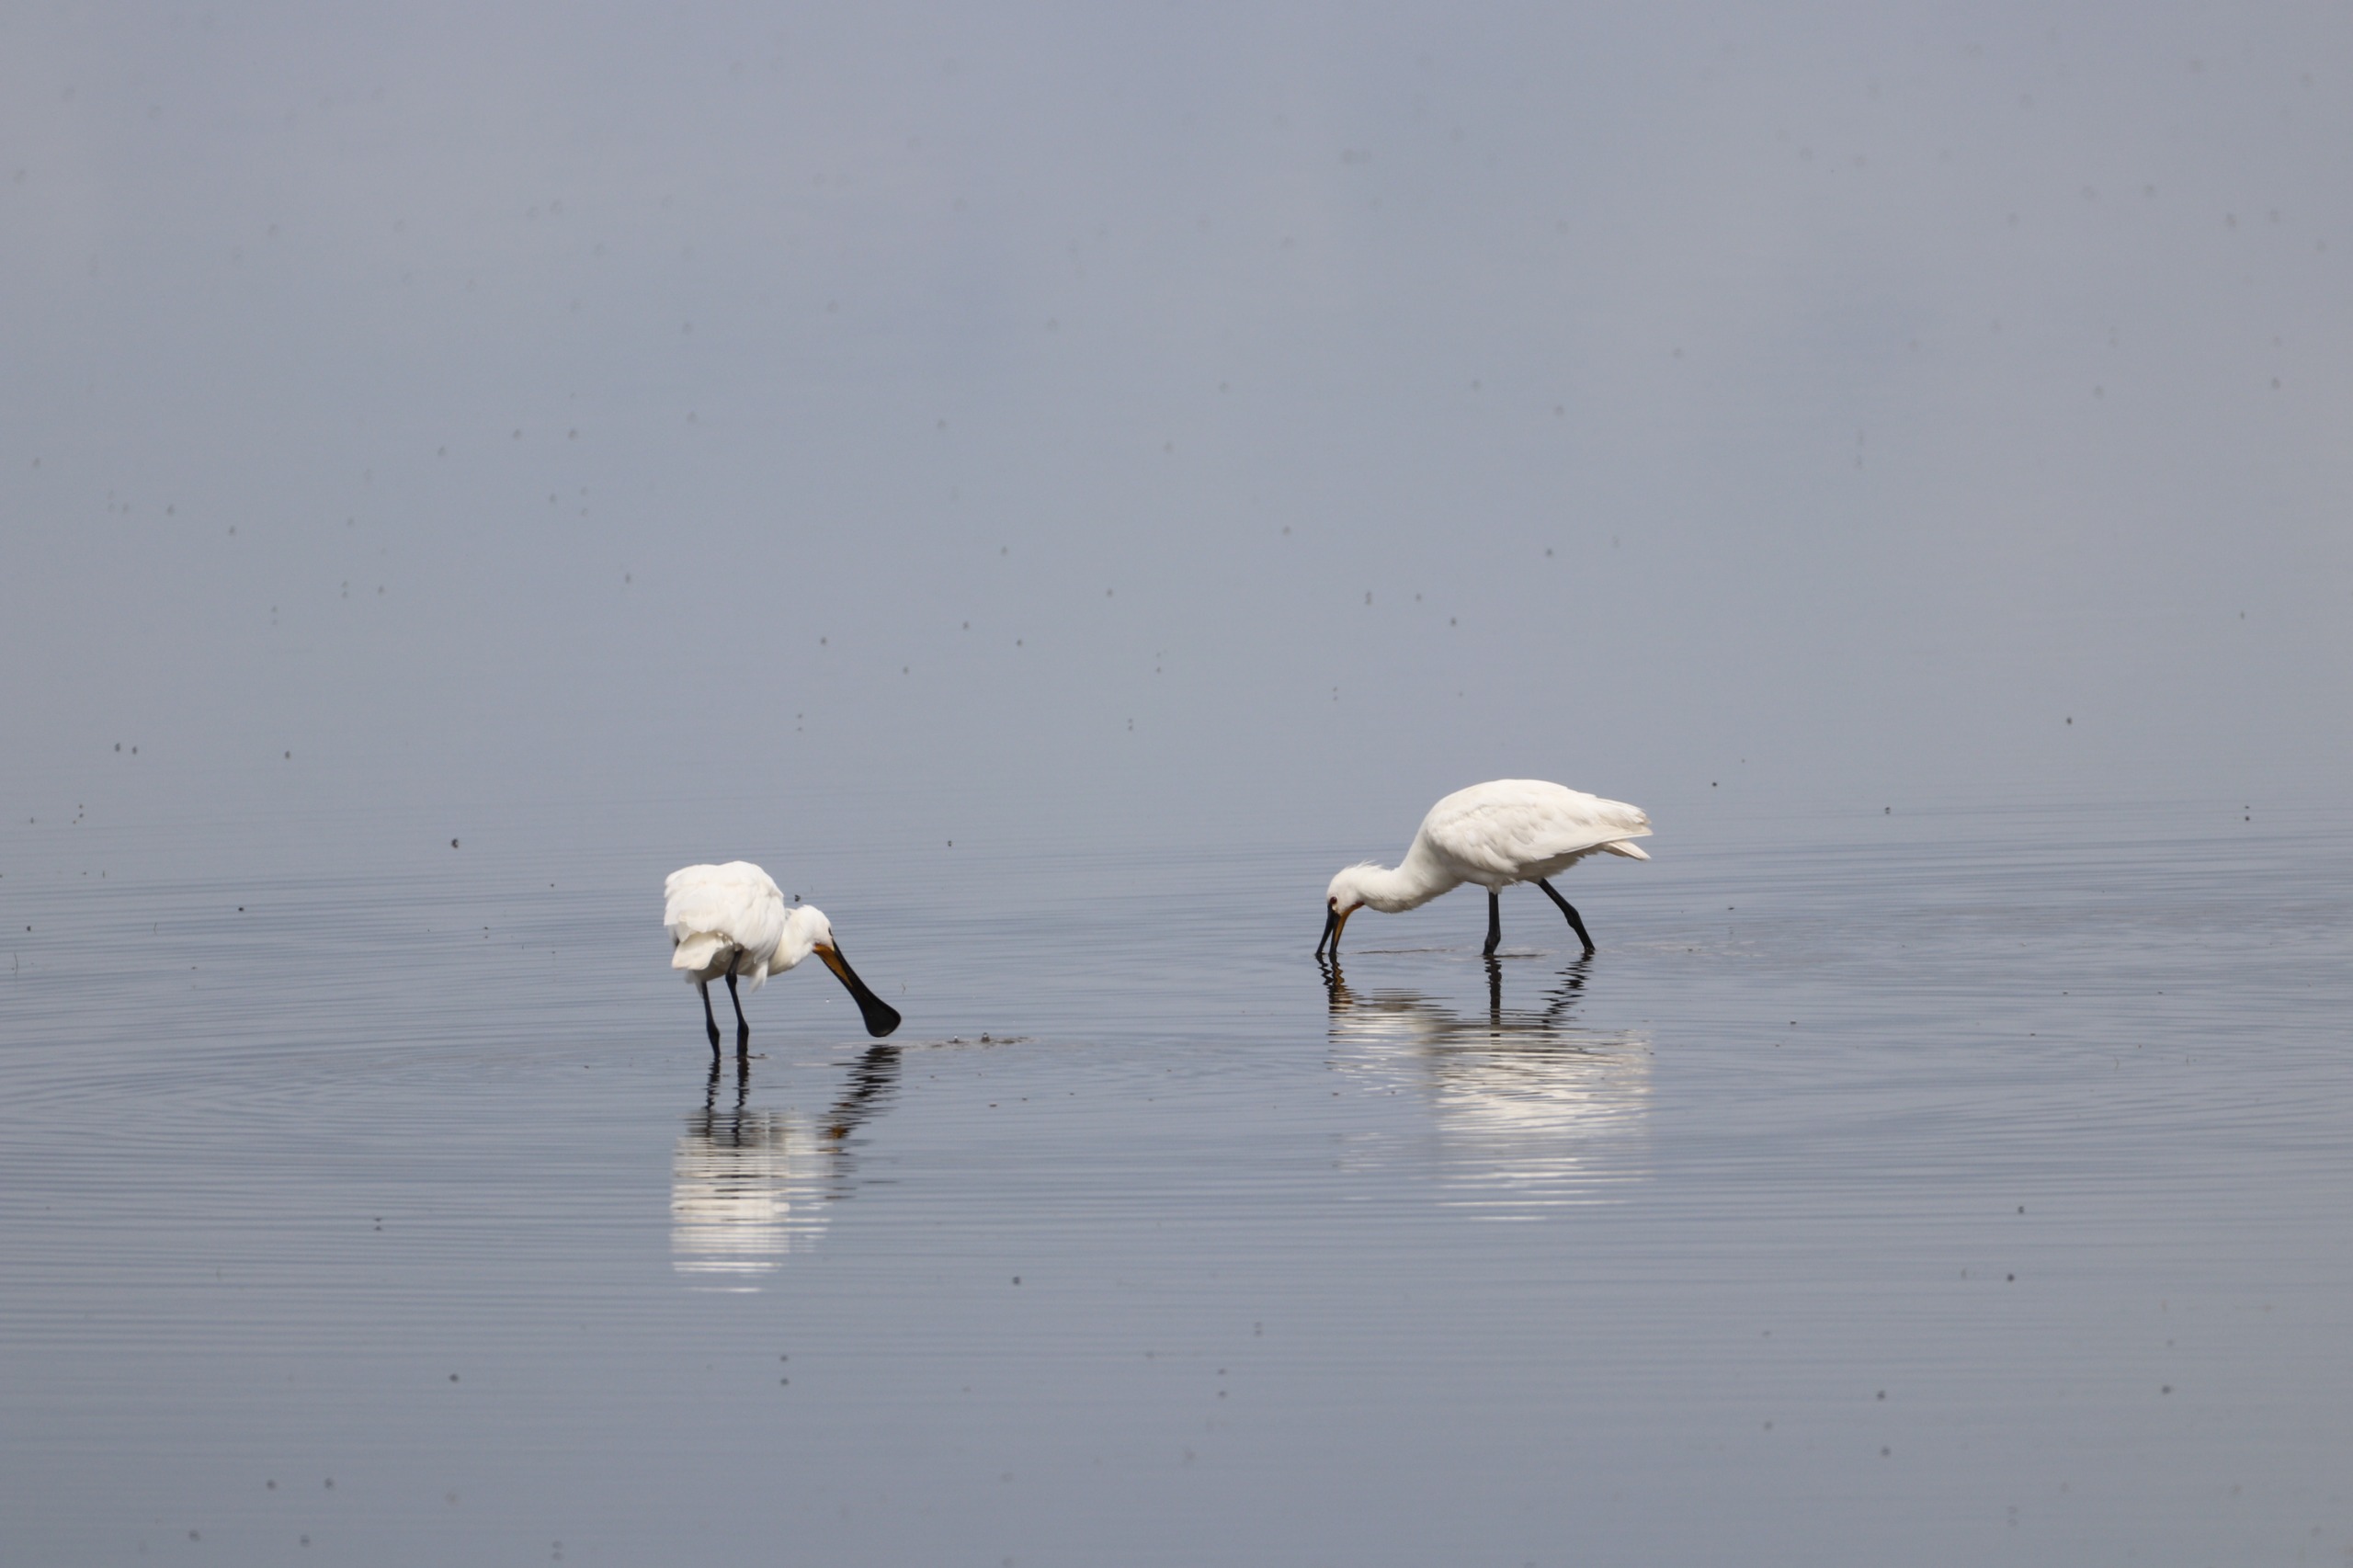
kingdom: Animalia
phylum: Chordata
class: Aves
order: Pelecaniformes
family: Threskiornithidae
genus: Platalea
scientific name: Platalea leucorodia
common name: Skestork
